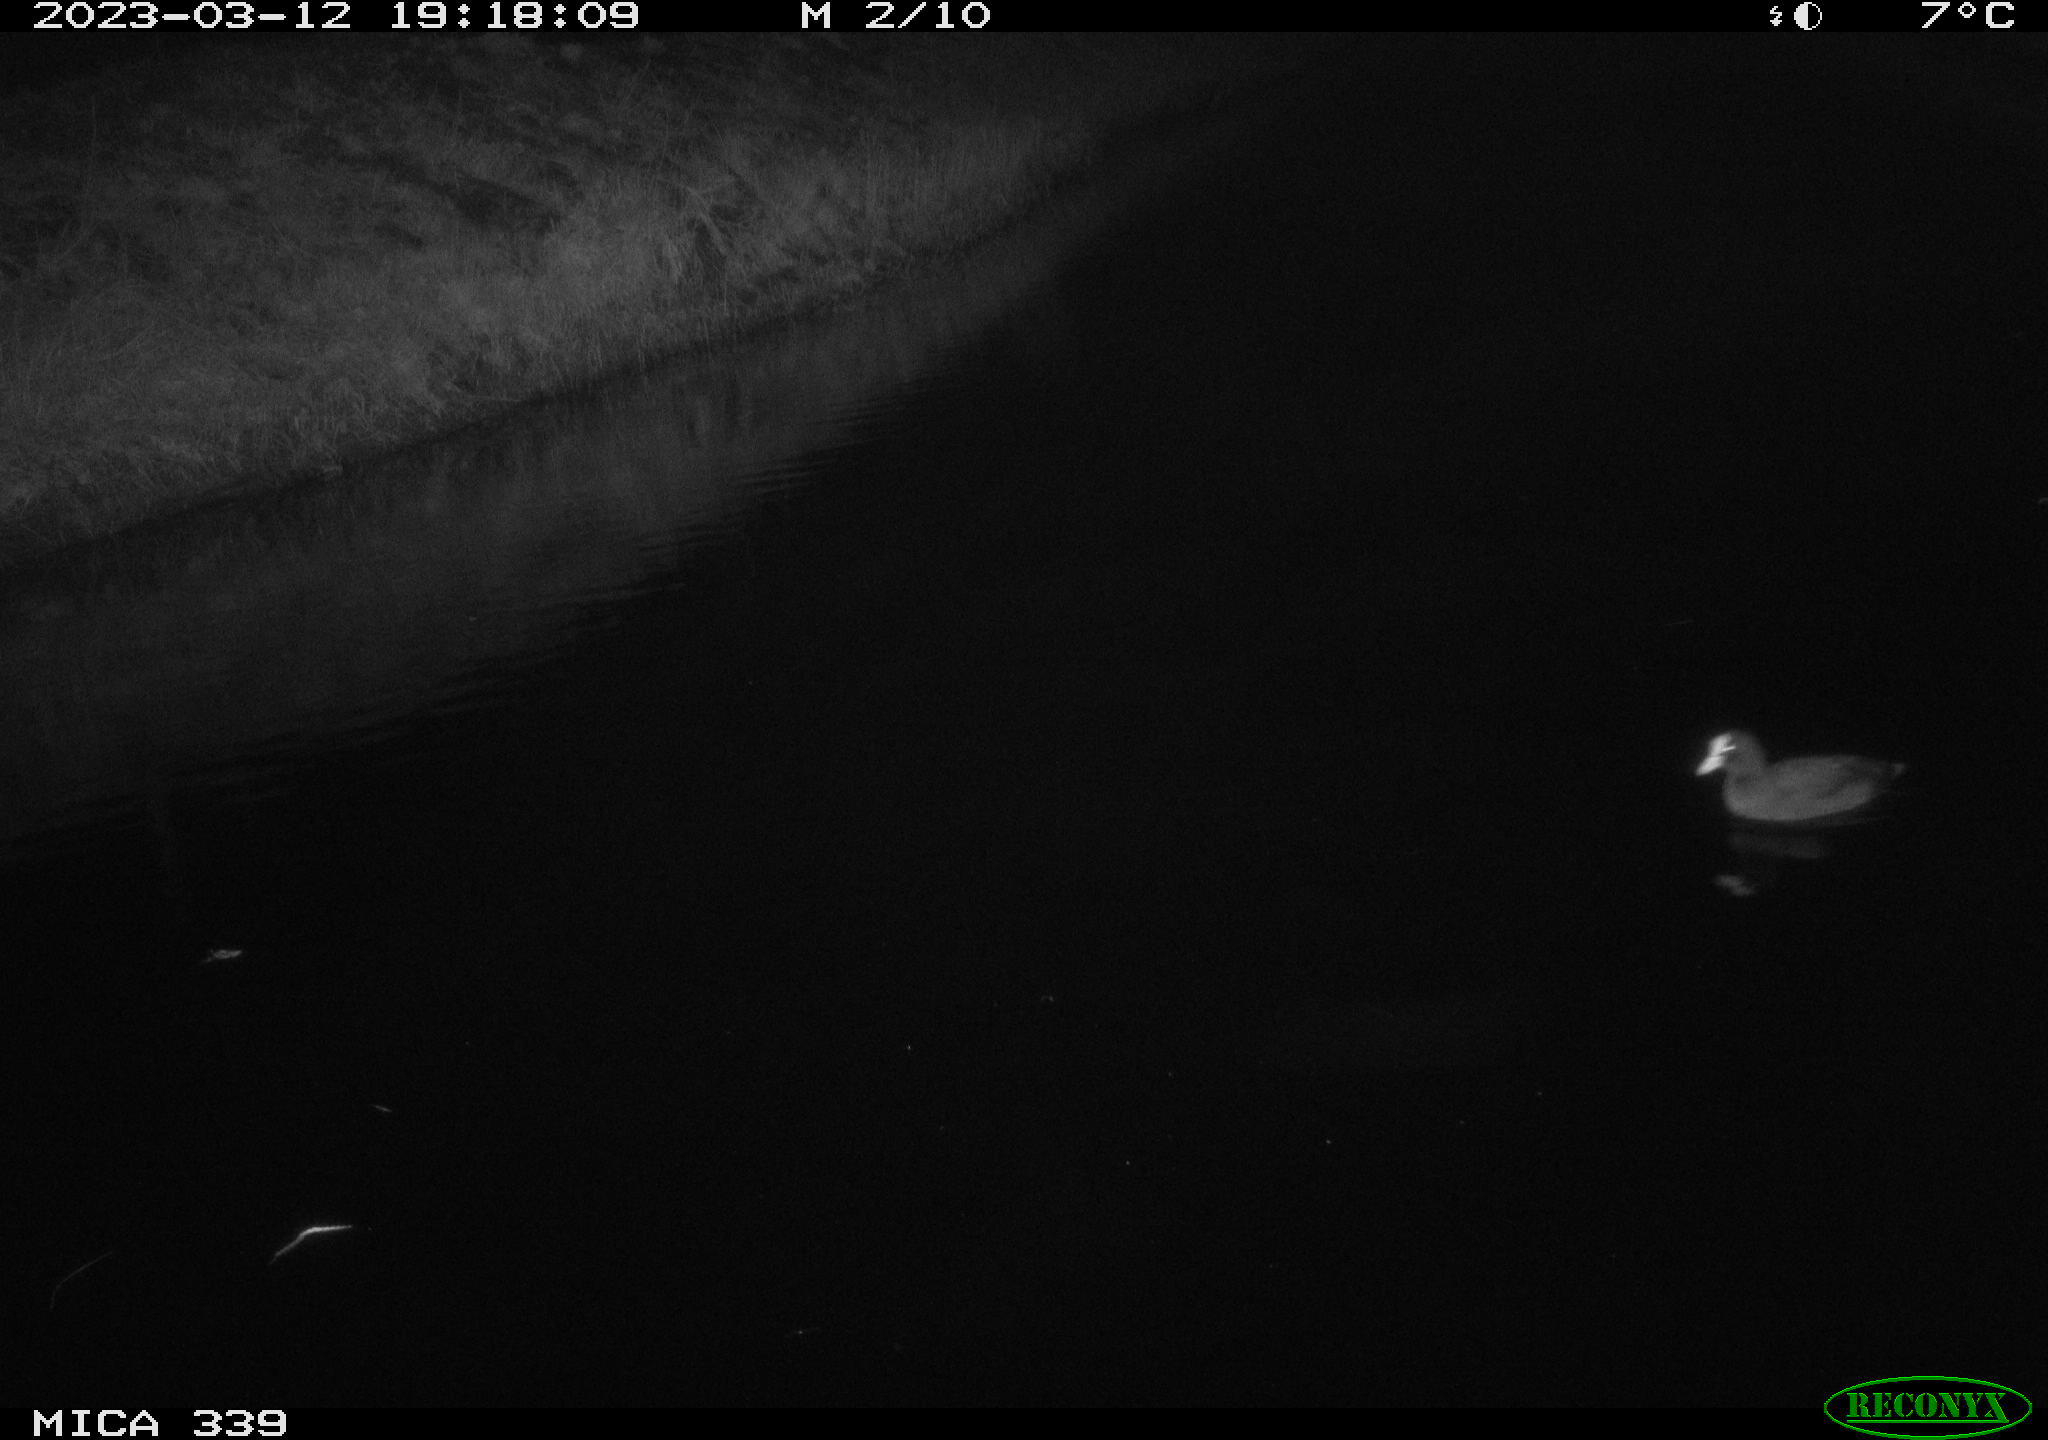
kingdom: Animalia
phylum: Chordata
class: Aves
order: Gruiformes
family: Rallidae
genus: Fulica
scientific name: Fulica atra
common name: Eurasian coot
